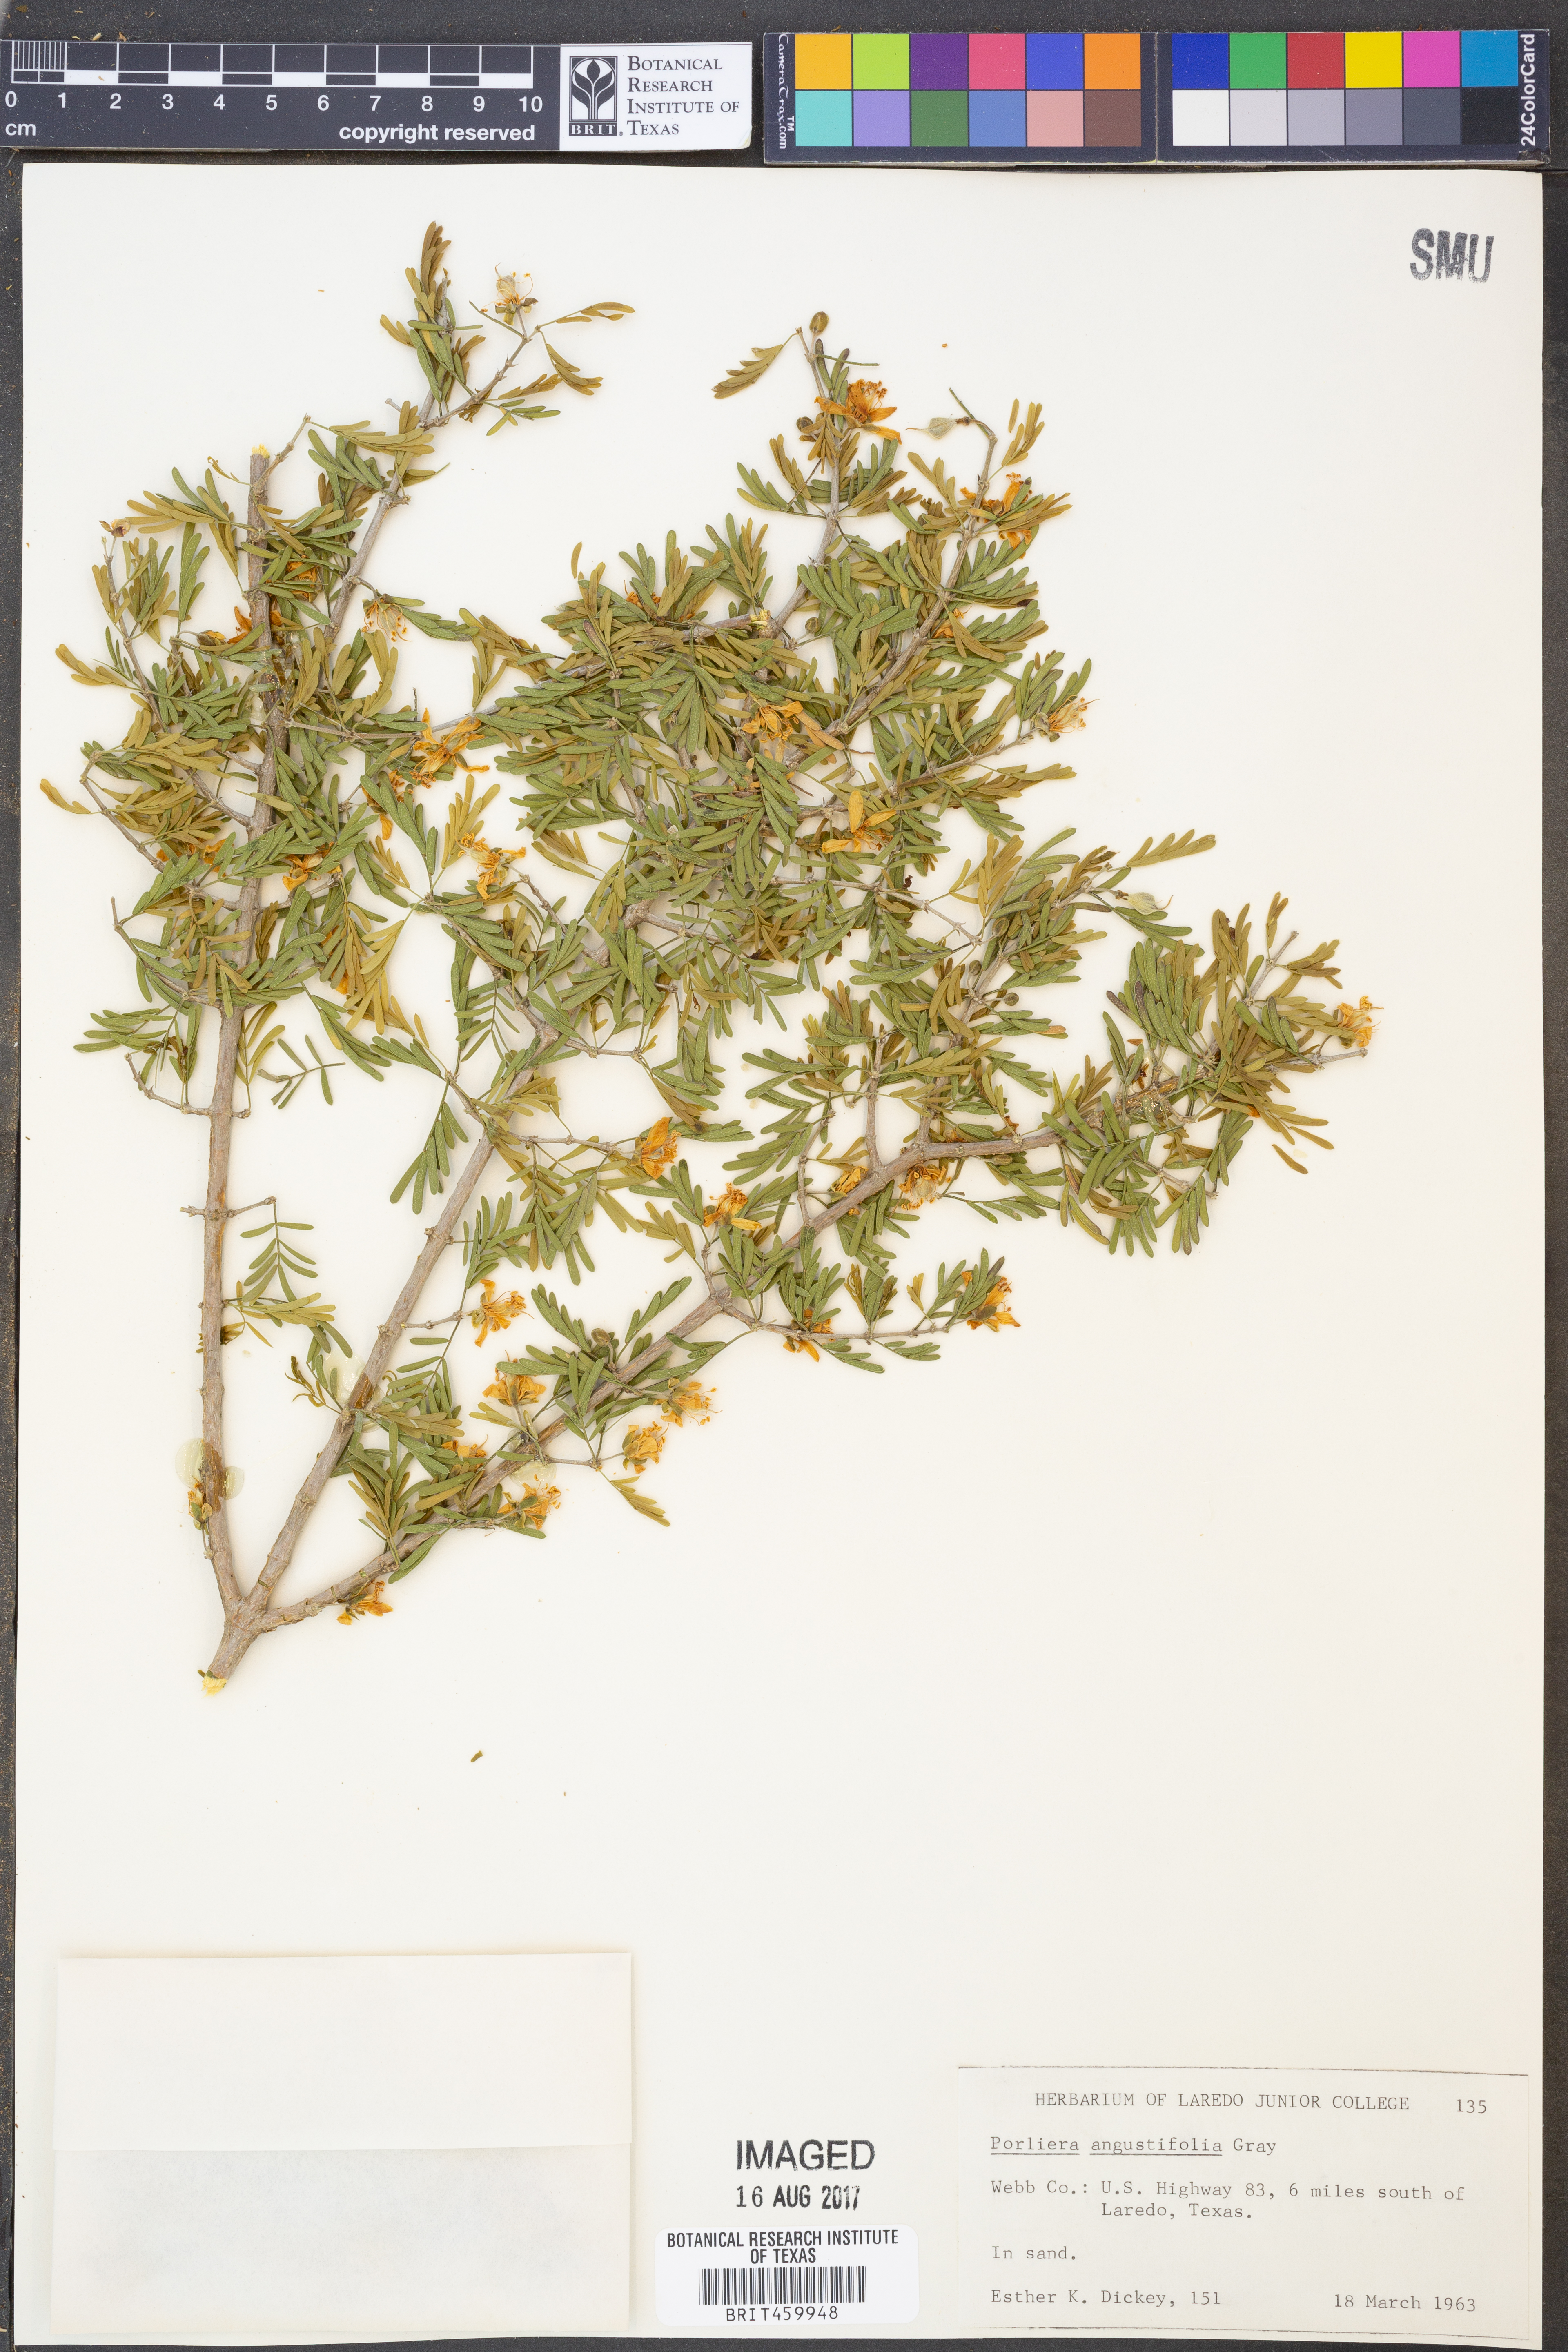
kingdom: Plantae
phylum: Tracheophyta
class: Magnoliopsida
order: Zygophyllales
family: Zygophyllaceae
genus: Porlieria
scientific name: Porlieria angustifolia
